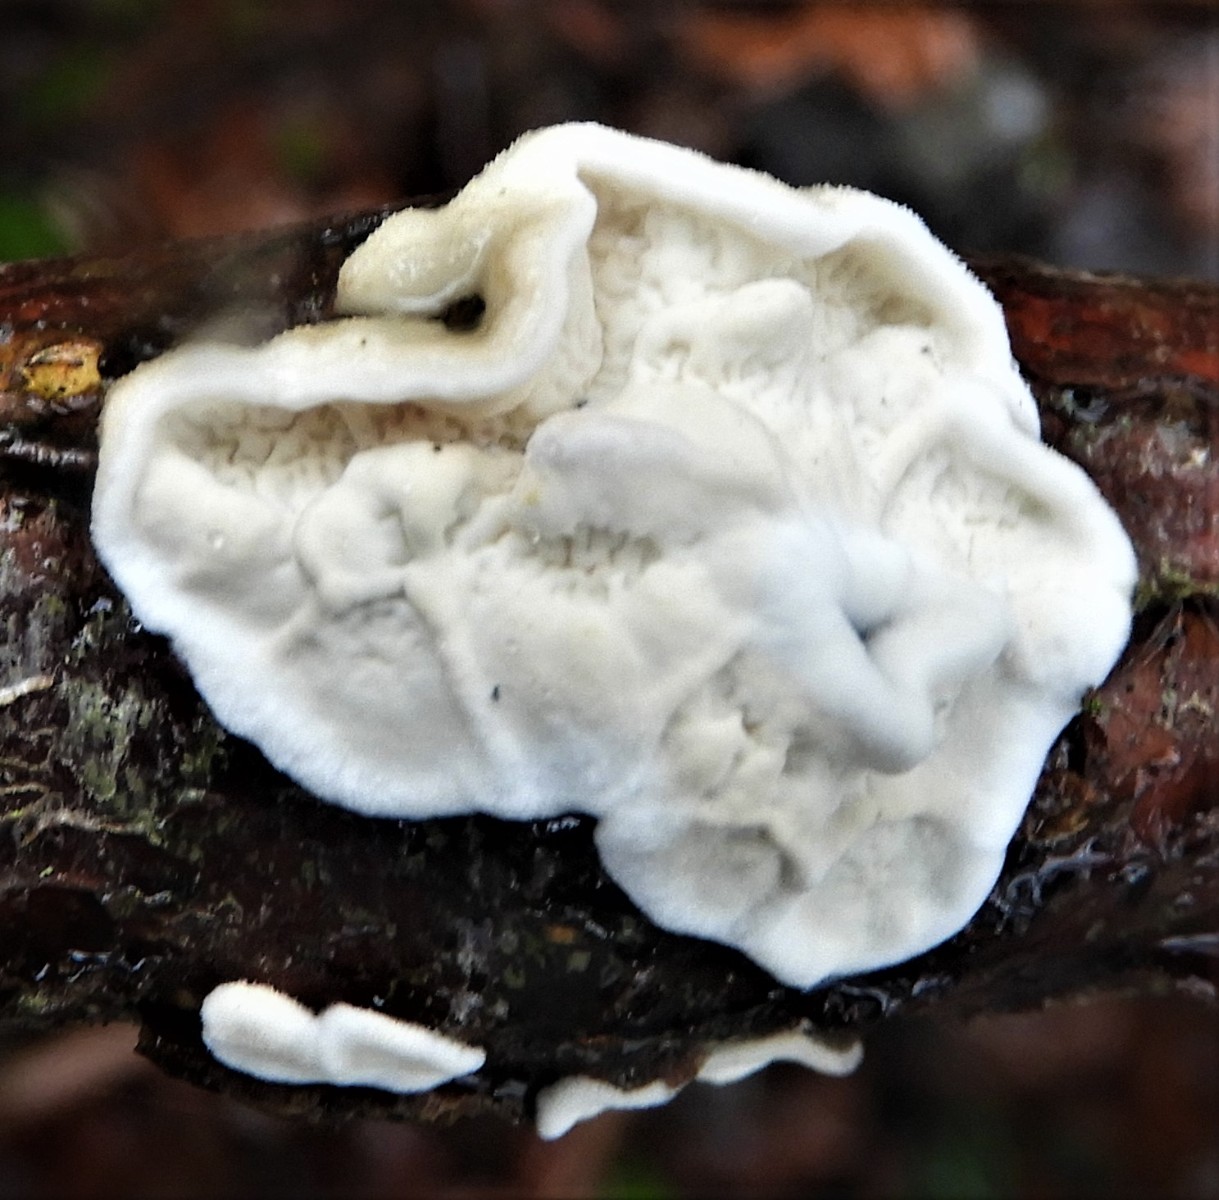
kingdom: Fungi
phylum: Basidiomycota
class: Agaricomycetes
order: Polyporales
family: Irpicaceae
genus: Byssomerulius
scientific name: Byssomerulius corium
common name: læder-åresvamp
